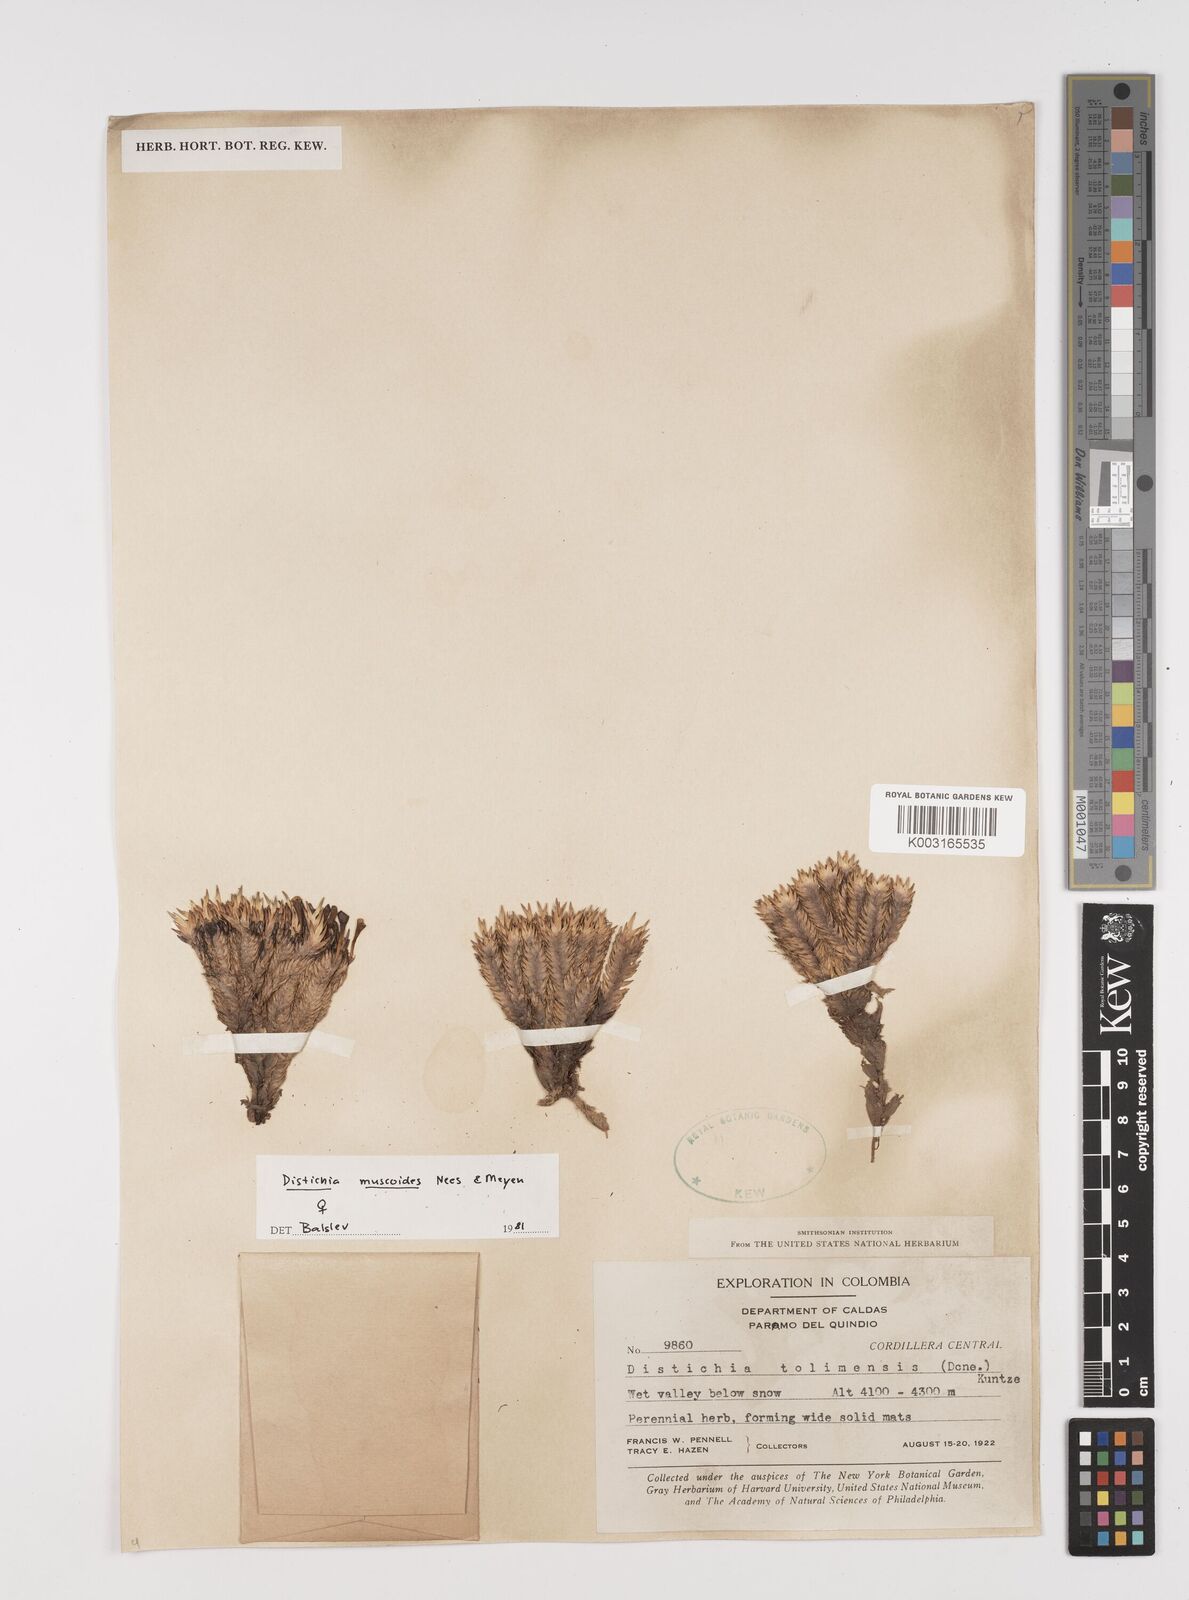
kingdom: Plantae
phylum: Tracheophyta
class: Liliopsida
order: Poales
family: Juncaceae
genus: Distichia
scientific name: Distichia muscoides
